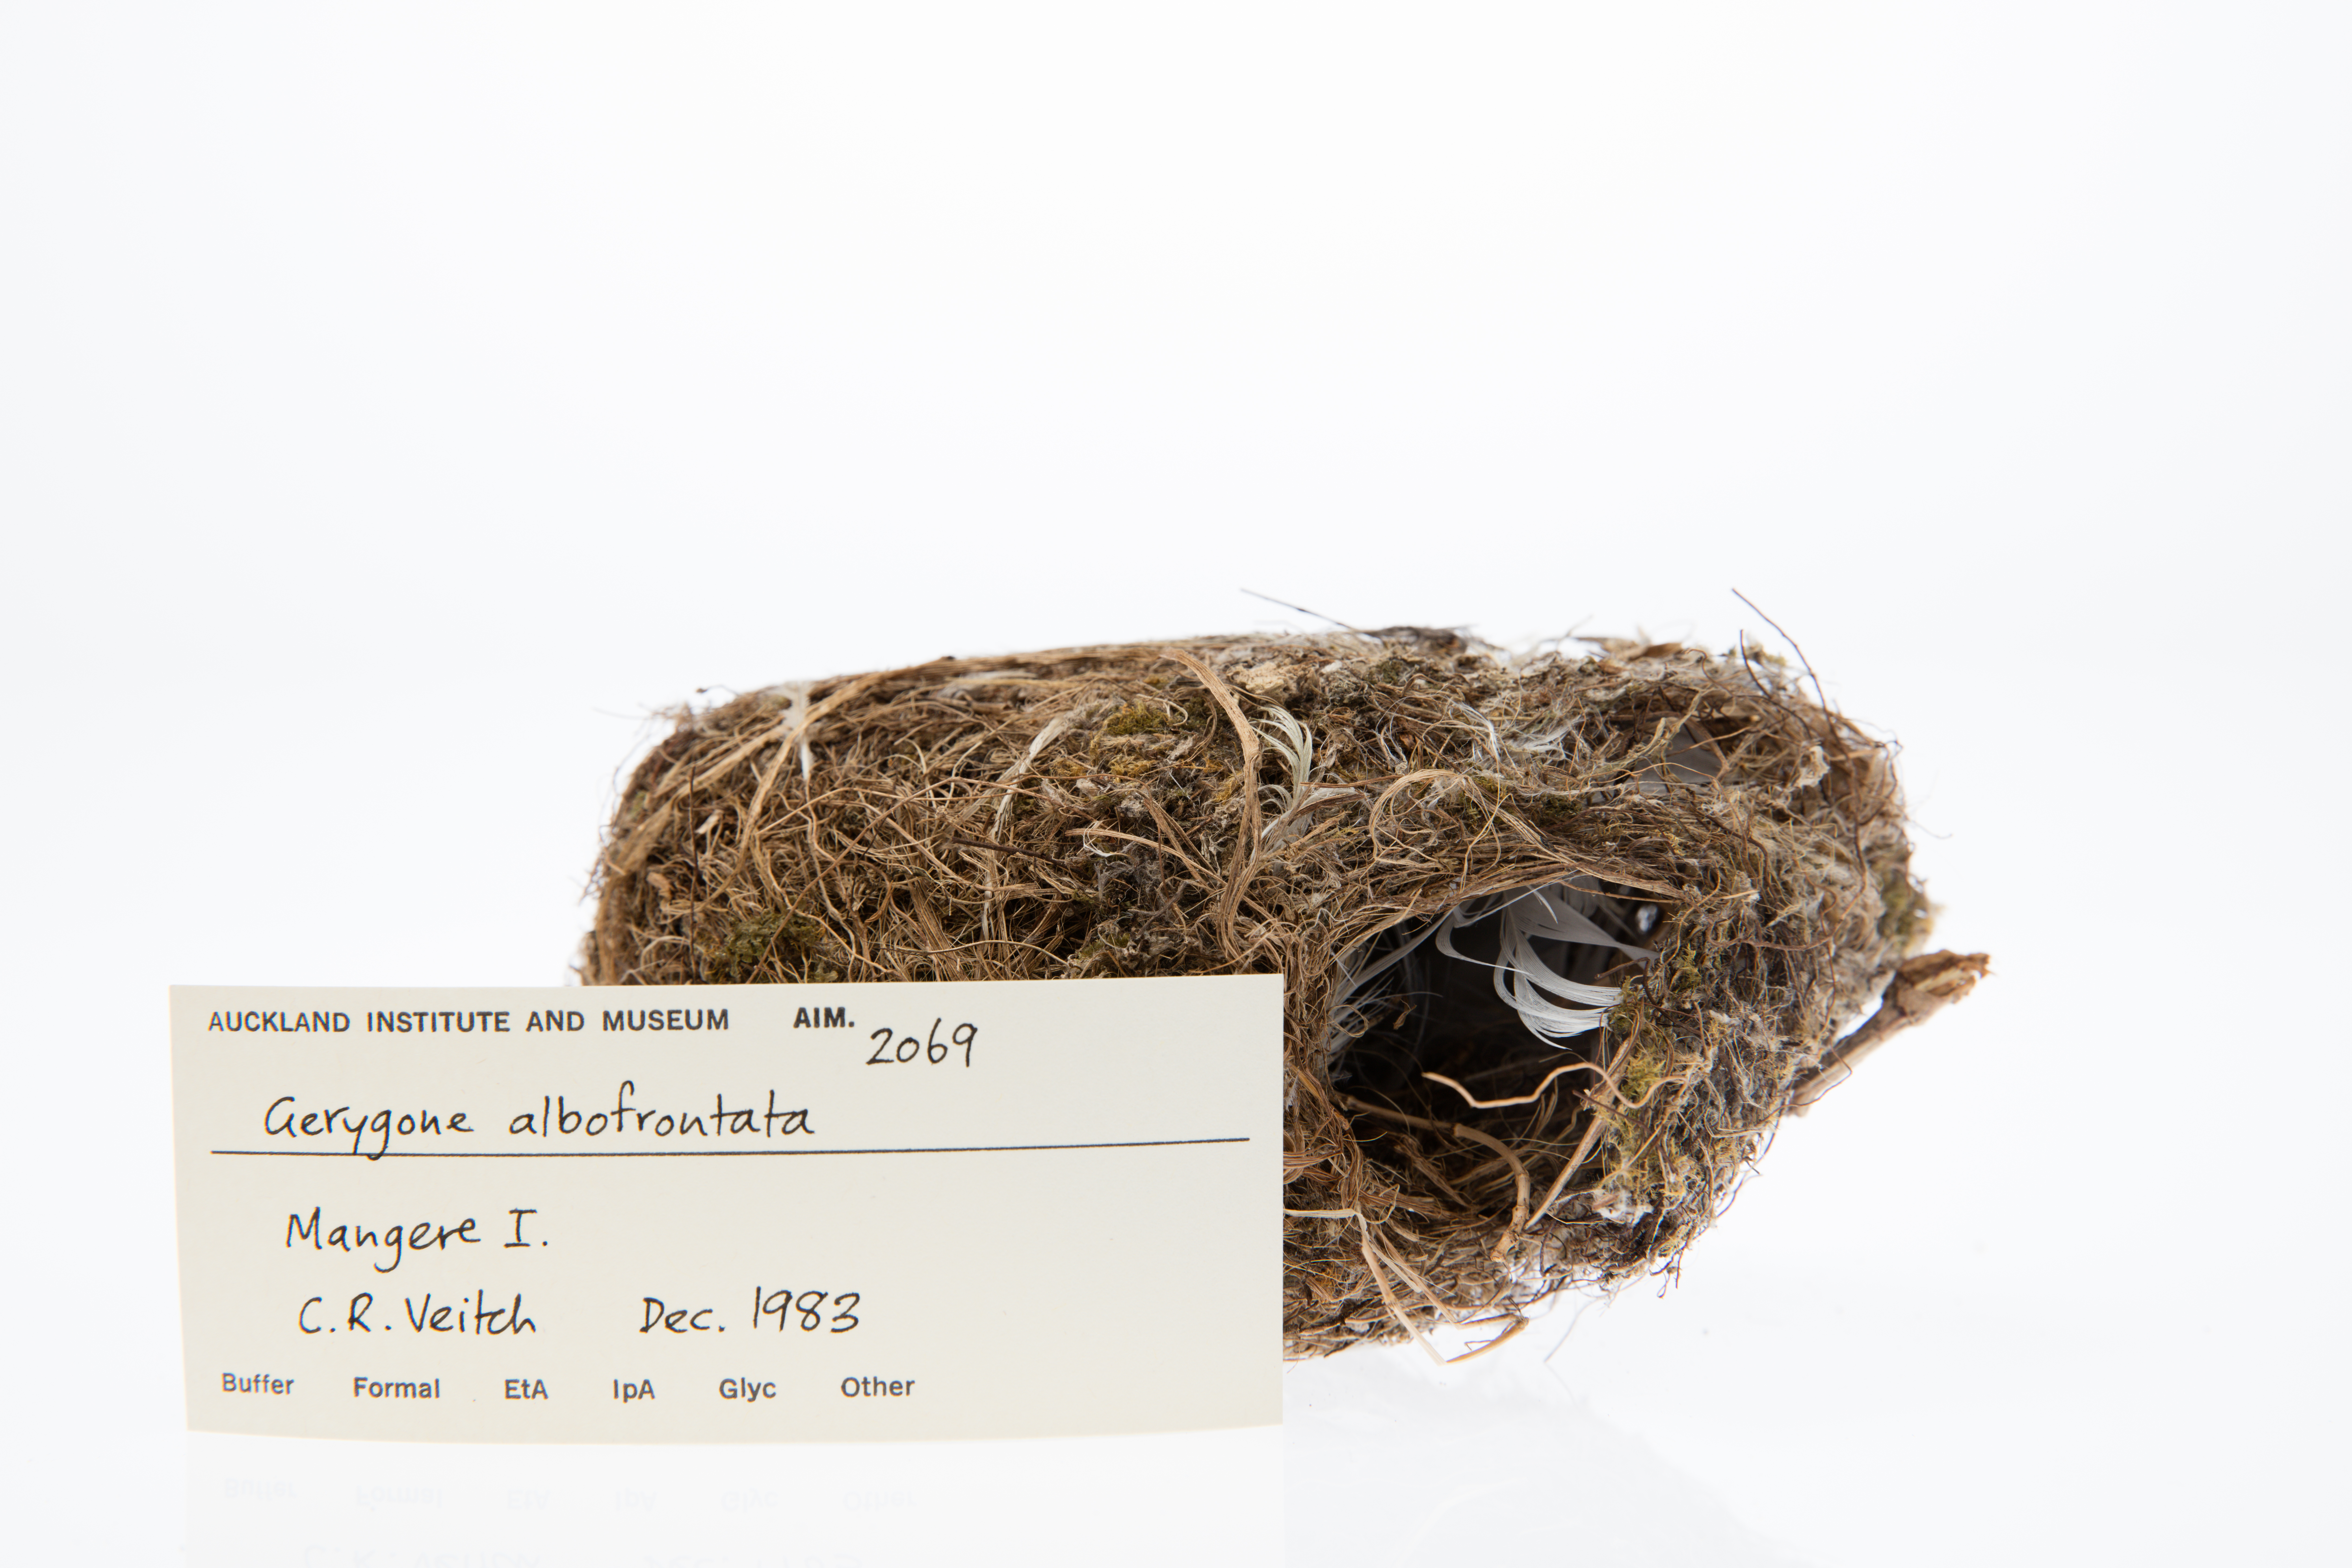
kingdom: Animalia
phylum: Chordata
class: Aves
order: Passeriformes
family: Acanthizidae
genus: Gerygone
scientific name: Gerygone albofrontata
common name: Chatham gerygone
